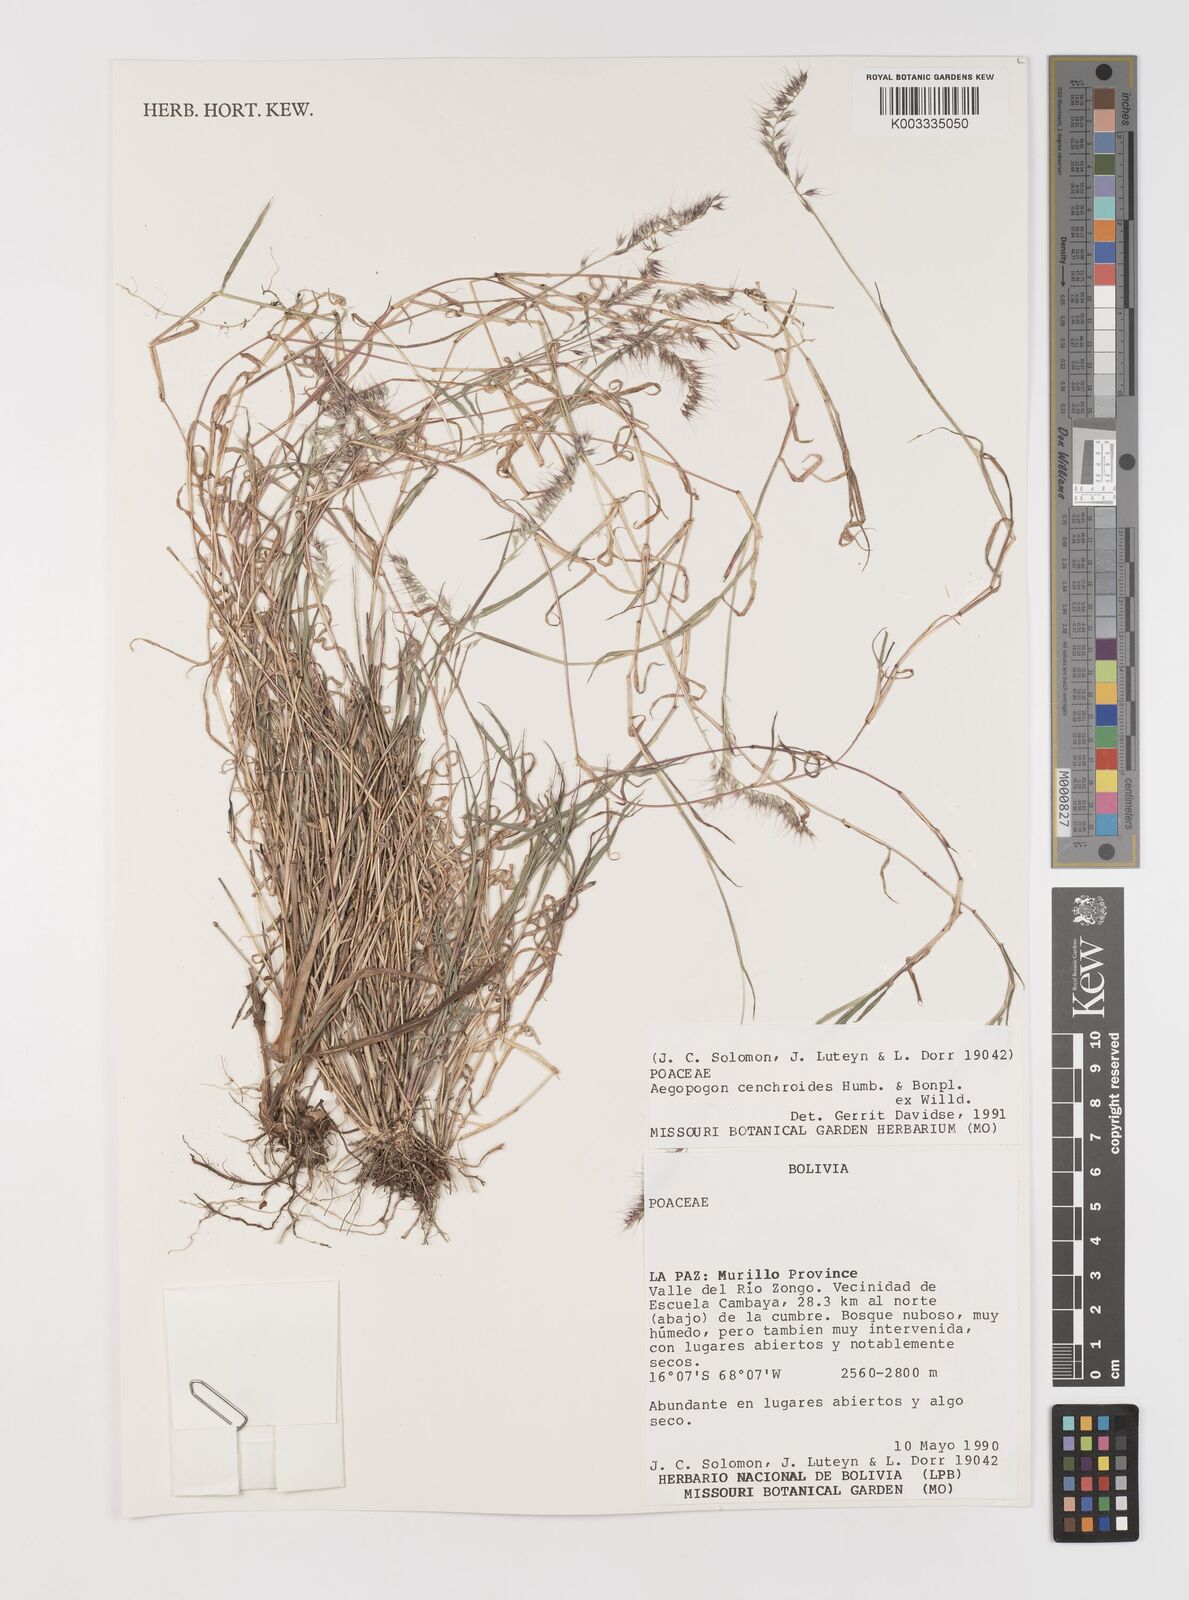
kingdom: Plantae
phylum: Tracheophyta
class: Liliopsida
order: Poales
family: Poaceae
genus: Muhlenbergia
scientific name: Muhlenbergia cenchroides
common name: Relaxgrass
